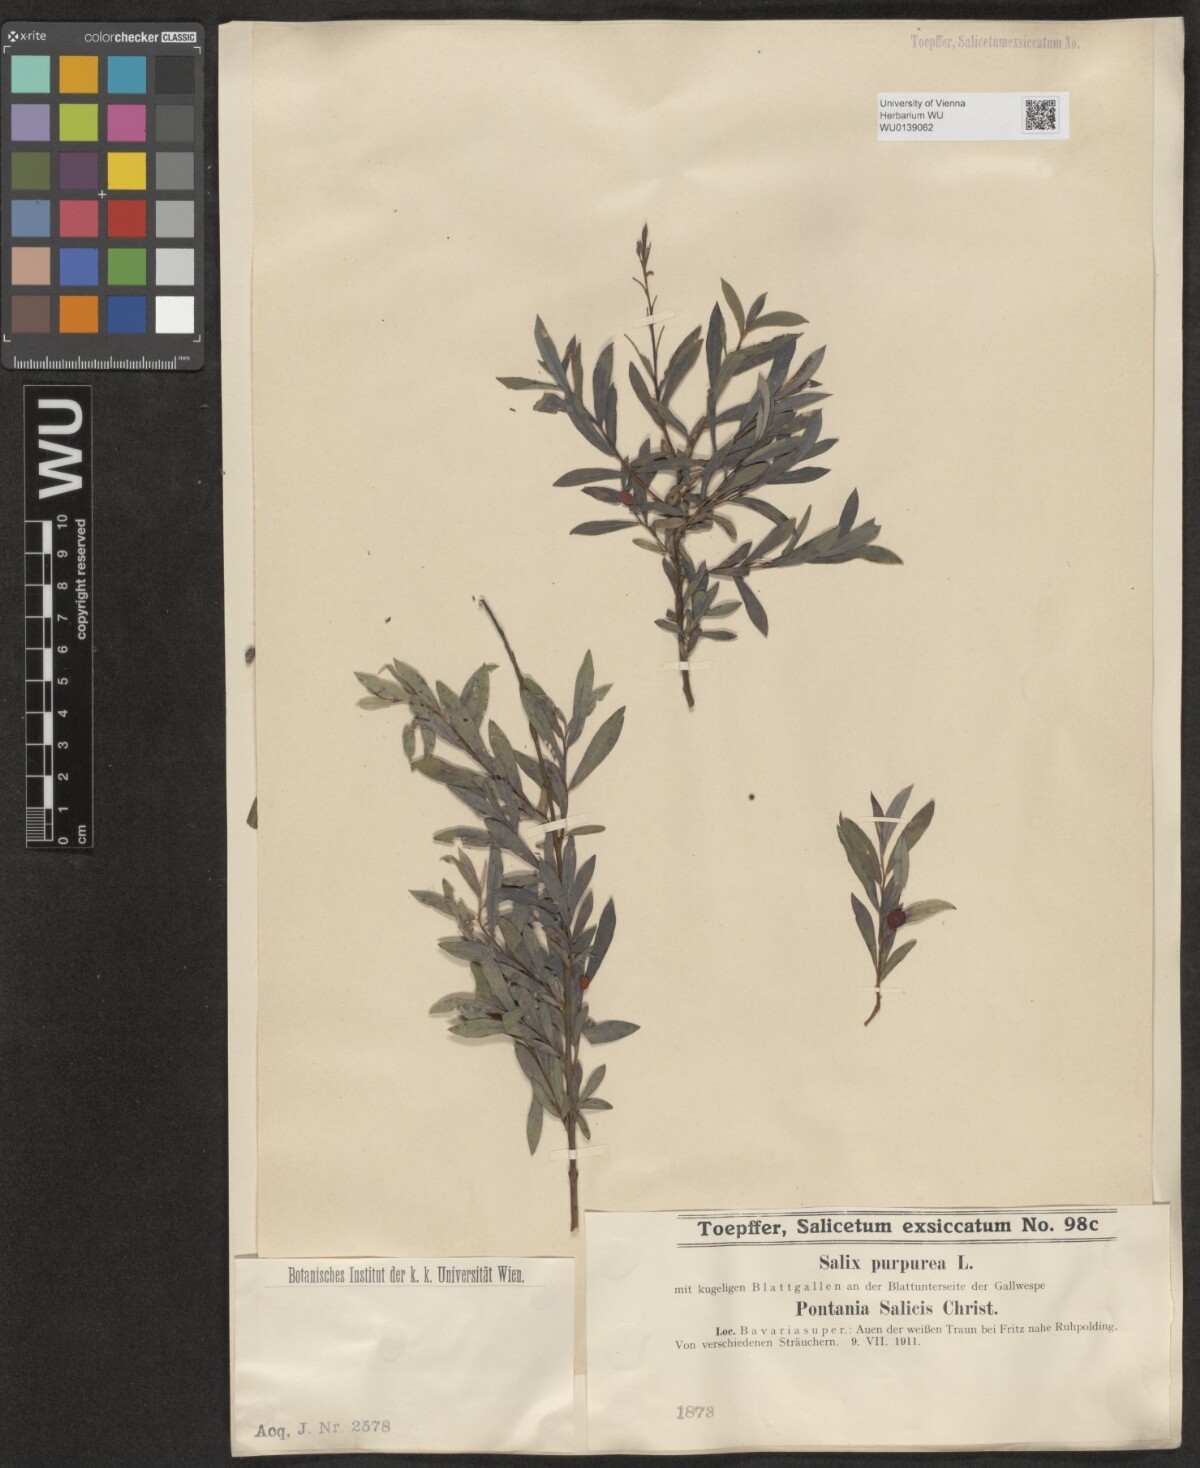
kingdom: Plantae
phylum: Tracheophyta
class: Magnoliopsida
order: Malpighiales
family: Salicaceae
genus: Salix
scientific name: Salix purpurea
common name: Purple willow
